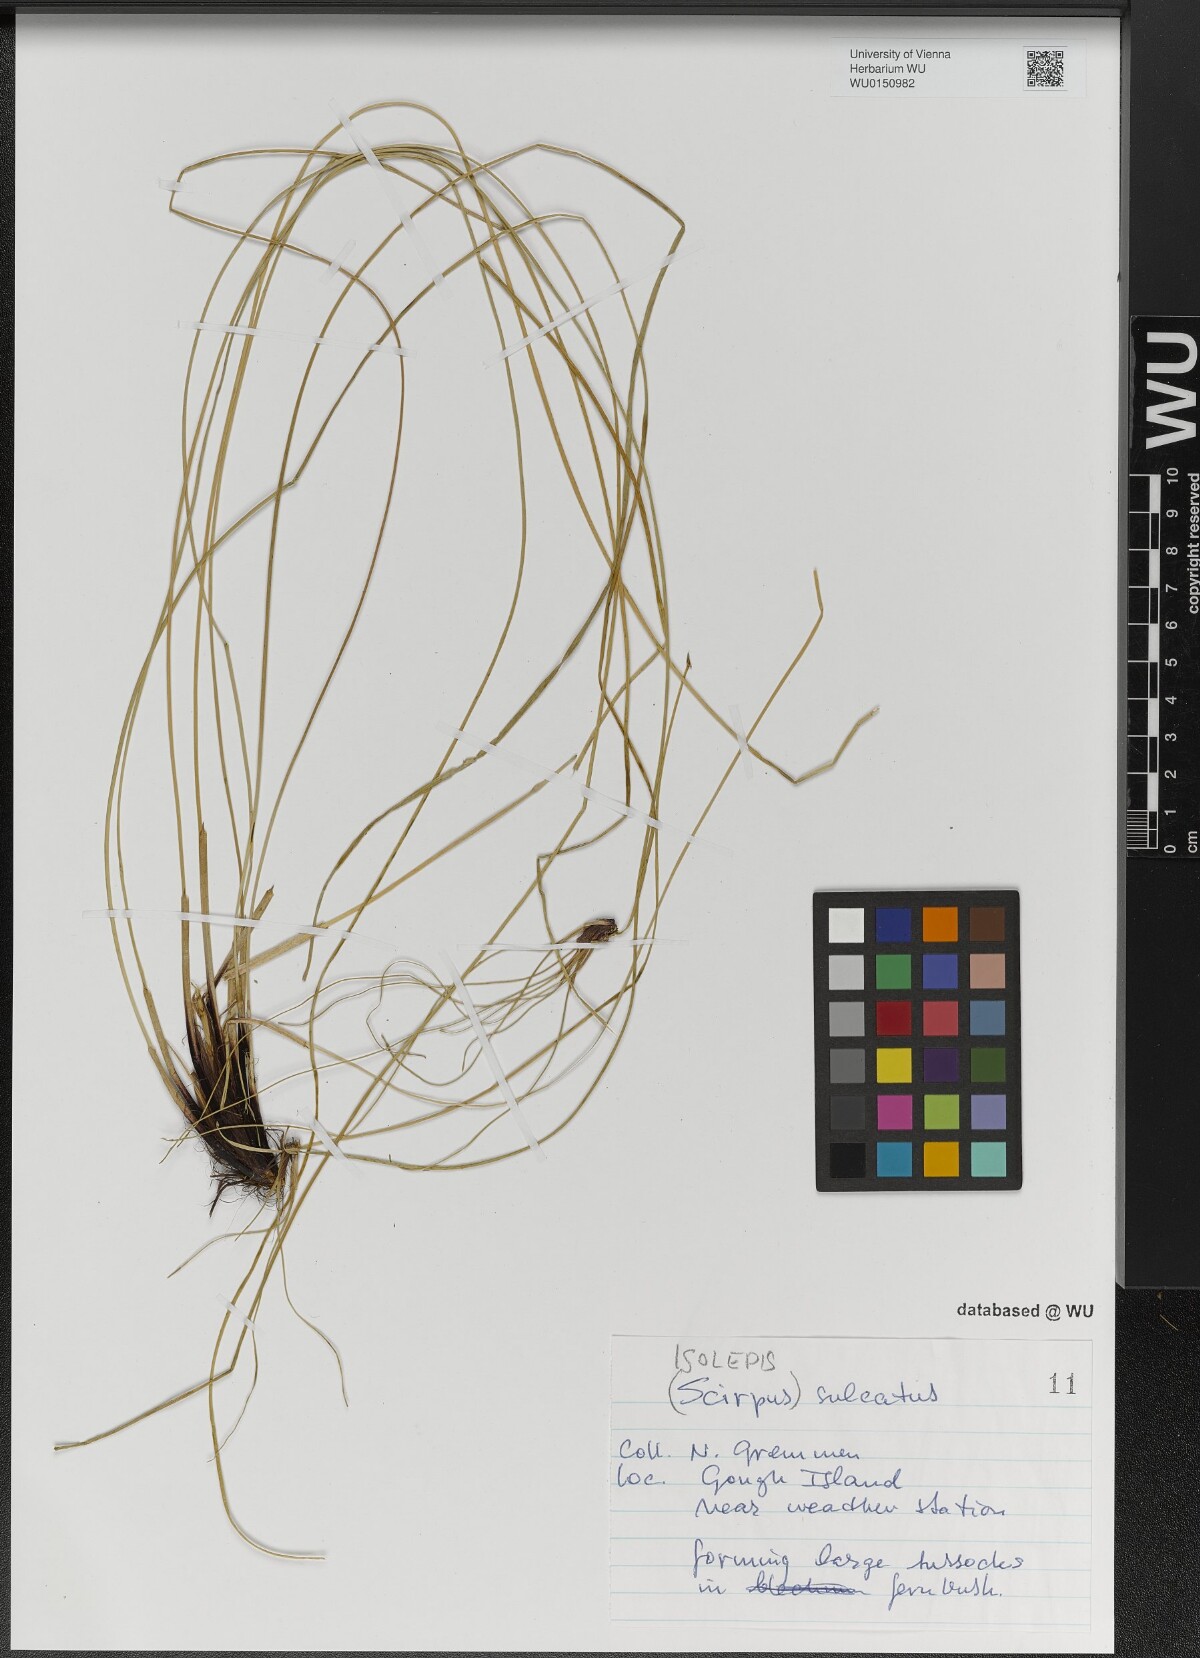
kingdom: Plantae
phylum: Tracheophyta
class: Liliopsida
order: Poales
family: Cyperaceae
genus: Isolepis
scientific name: Isolepis sulcata
